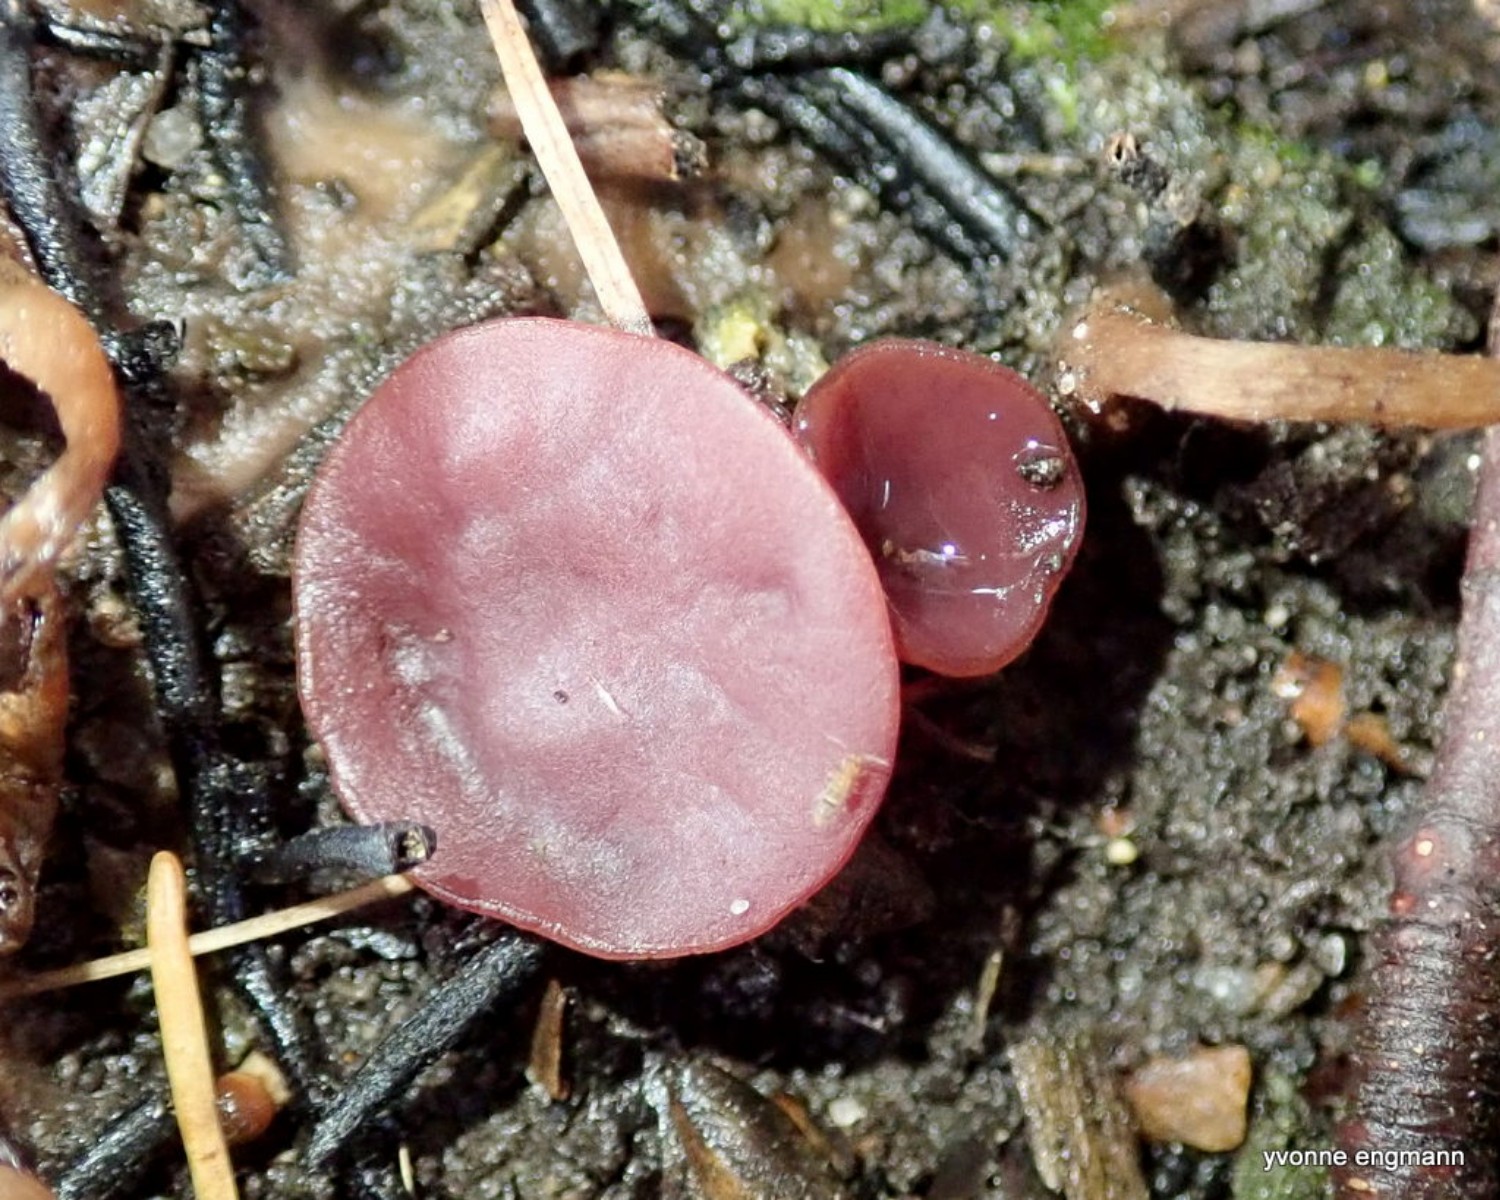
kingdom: Fungi
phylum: Ascomycota
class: Leotiomycetes
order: Helotiales
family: Gelatinodiscaceae
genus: Ascocoryne
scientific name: Ascocoryne cylichnium
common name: stor sejskive
